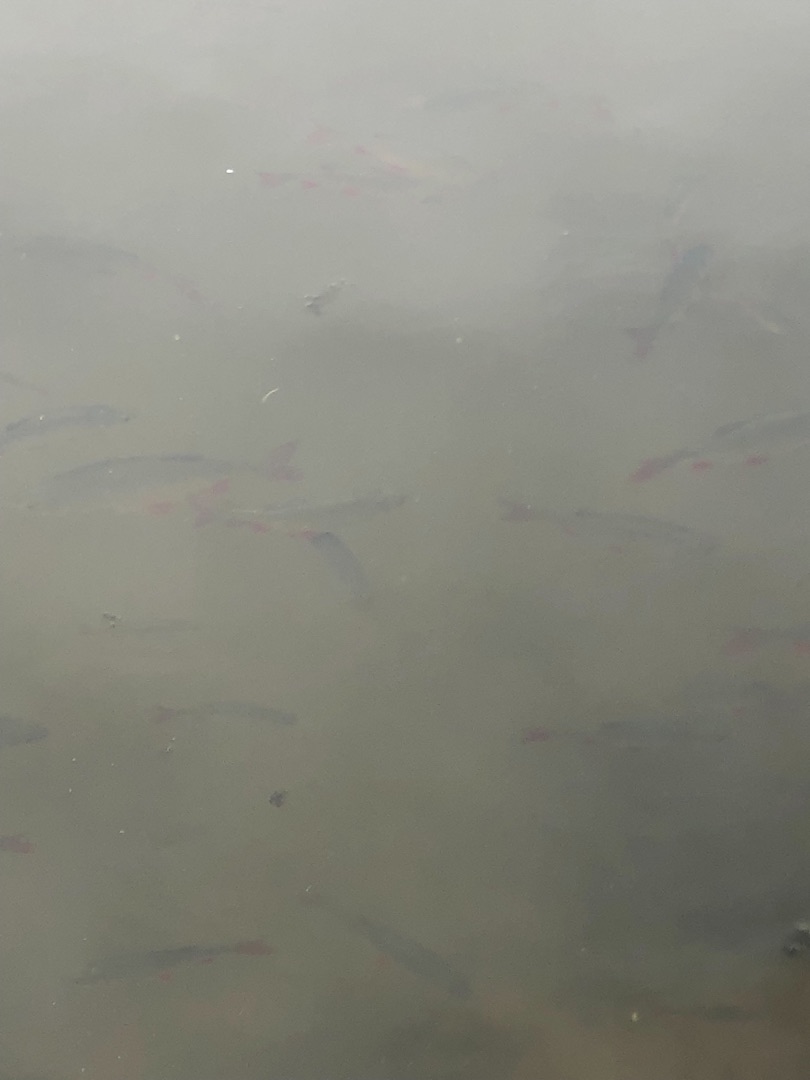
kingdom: Animalia
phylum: Chordata
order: Cypriniformes
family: Cyprinidae
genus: Scardinius
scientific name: Scardinius erythrophthalmus
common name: Rudskalle
